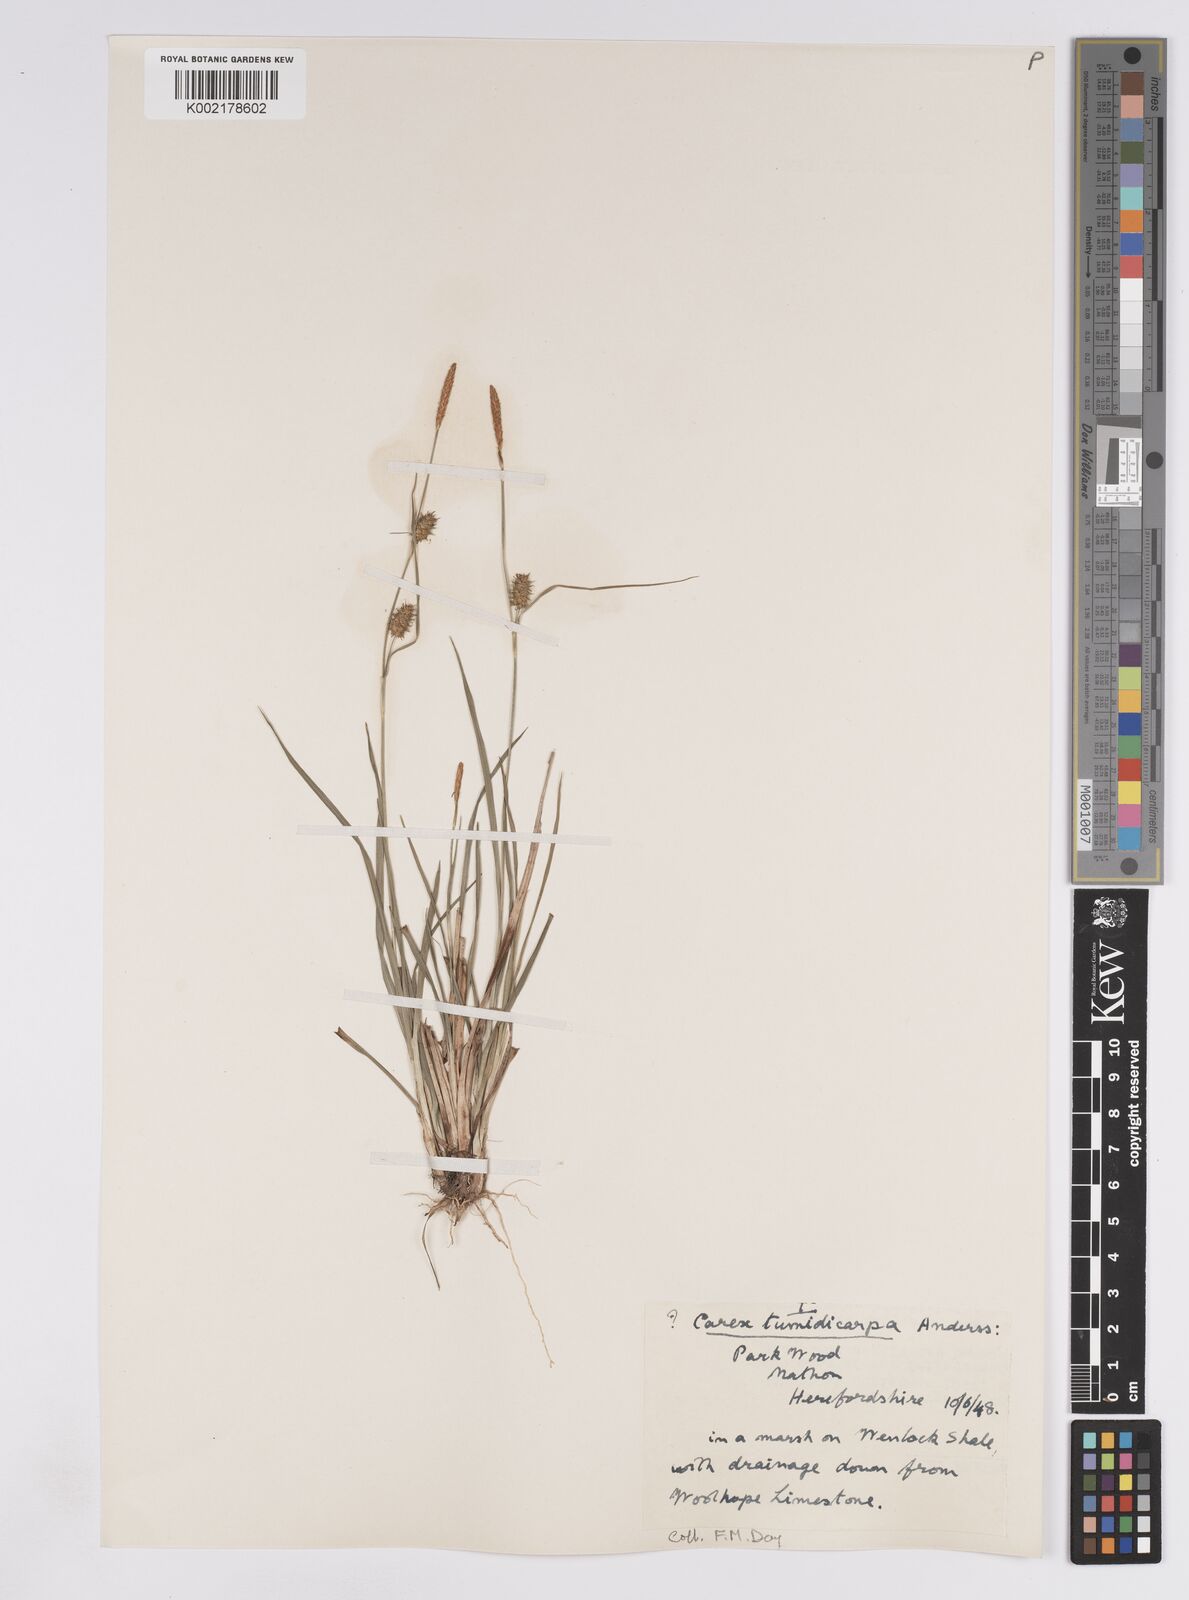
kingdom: Plantae
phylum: Tracheophyta
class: Liliopsida
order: Poales
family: Cyperaceae
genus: Carex
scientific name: Carex lepidocarpa
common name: Long-stalked yellow-sedge
